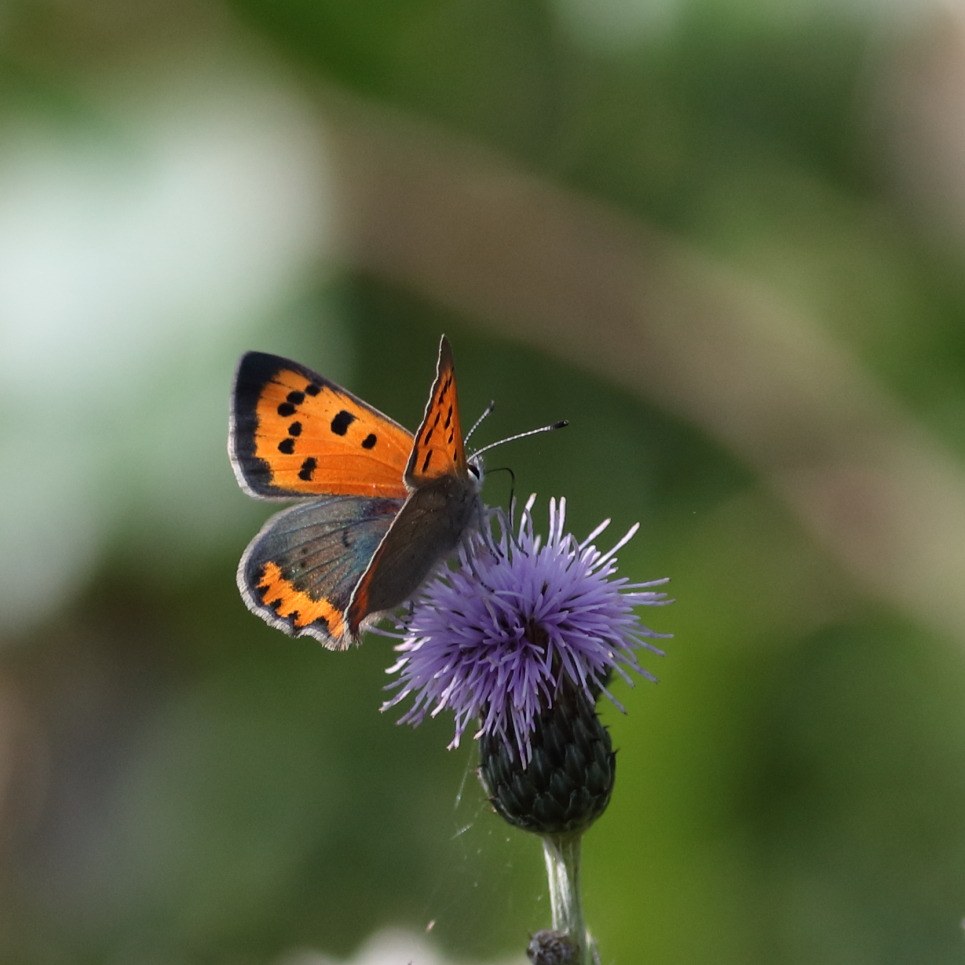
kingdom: Animalia
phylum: Arthropoda
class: Insecta
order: Lepidoptera
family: Lycaenidae
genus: Lycaena
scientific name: Lycaena phlaeas
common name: Lille ildfugl
